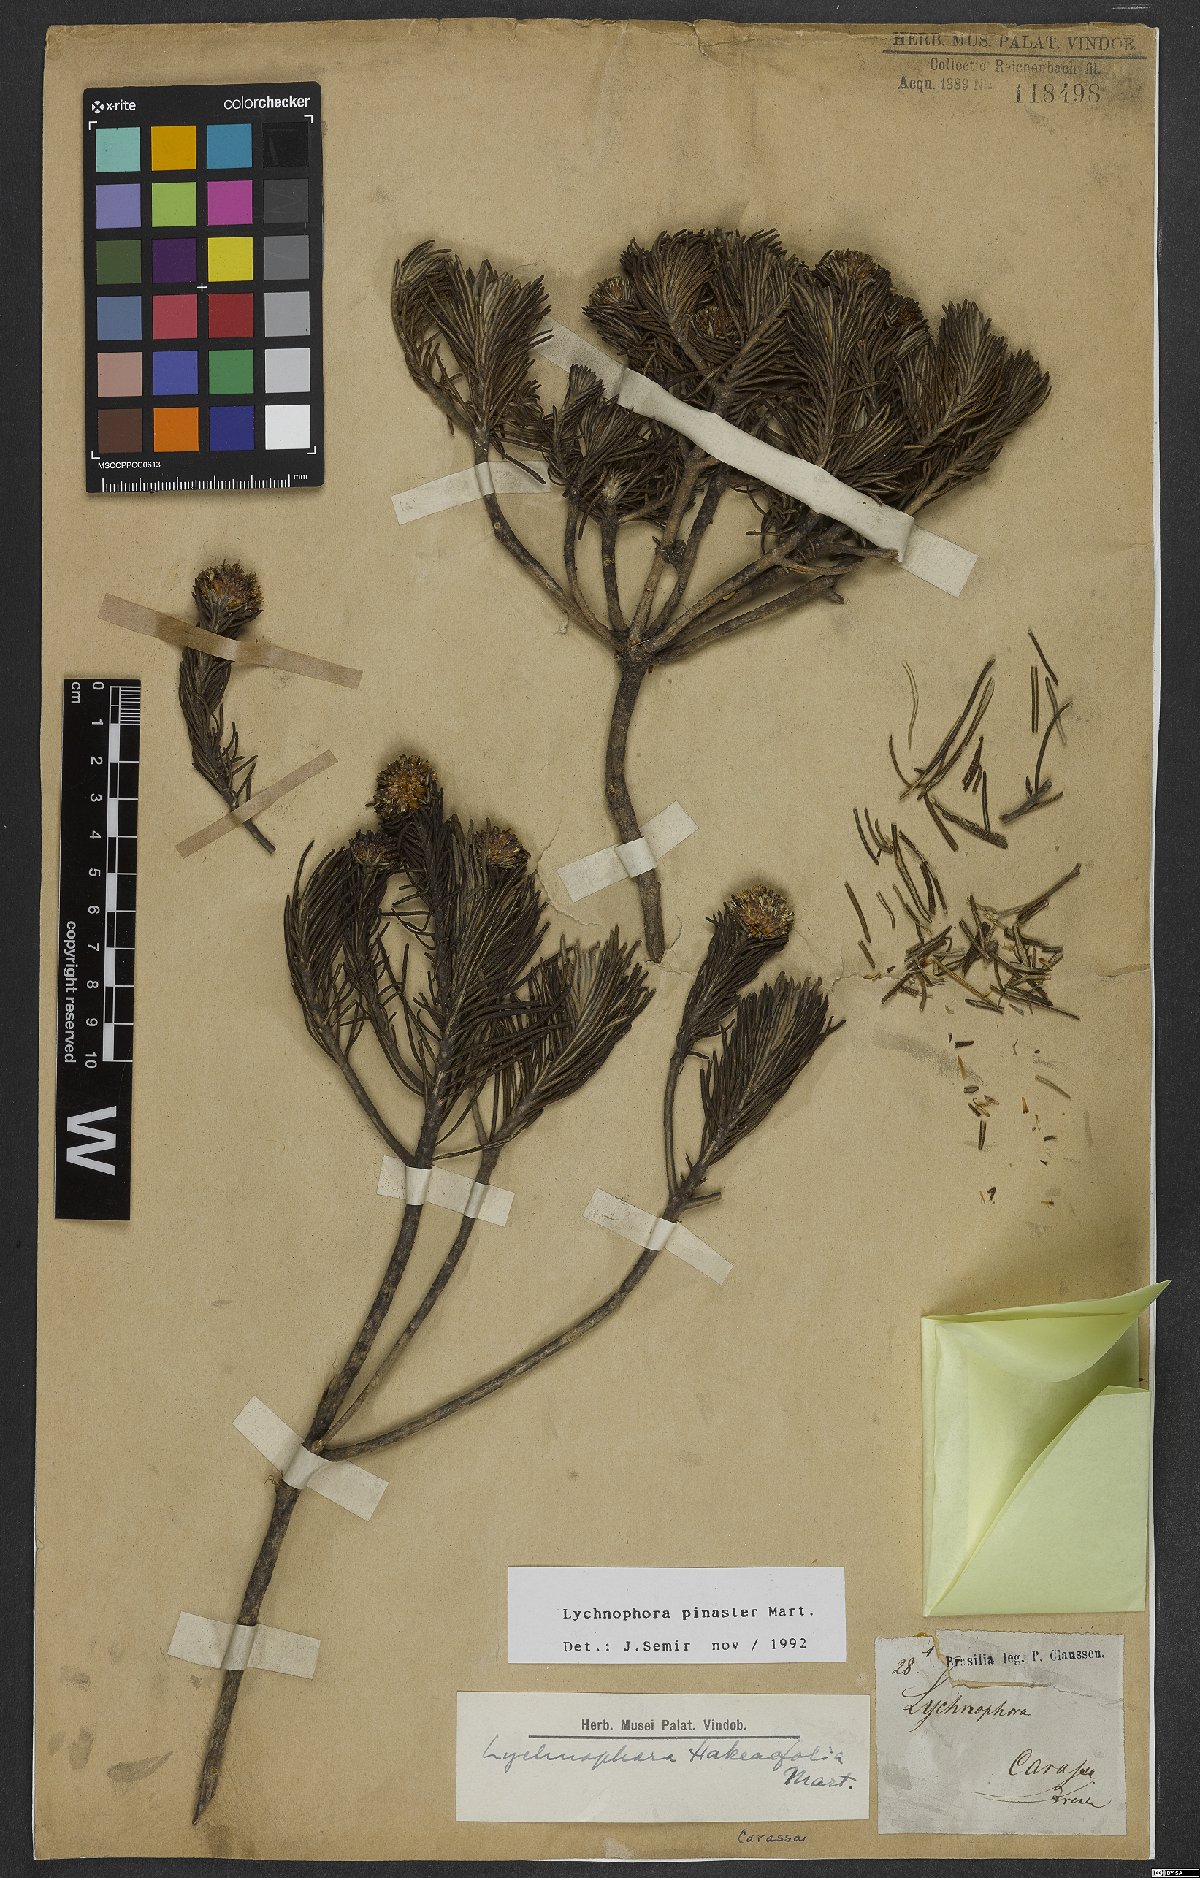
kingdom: Plantae
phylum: Tracheophyta
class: Magnoliopsida
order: Asterales
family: Asteraceae
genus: Lychnophora
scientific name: Lychnophora pinaster
